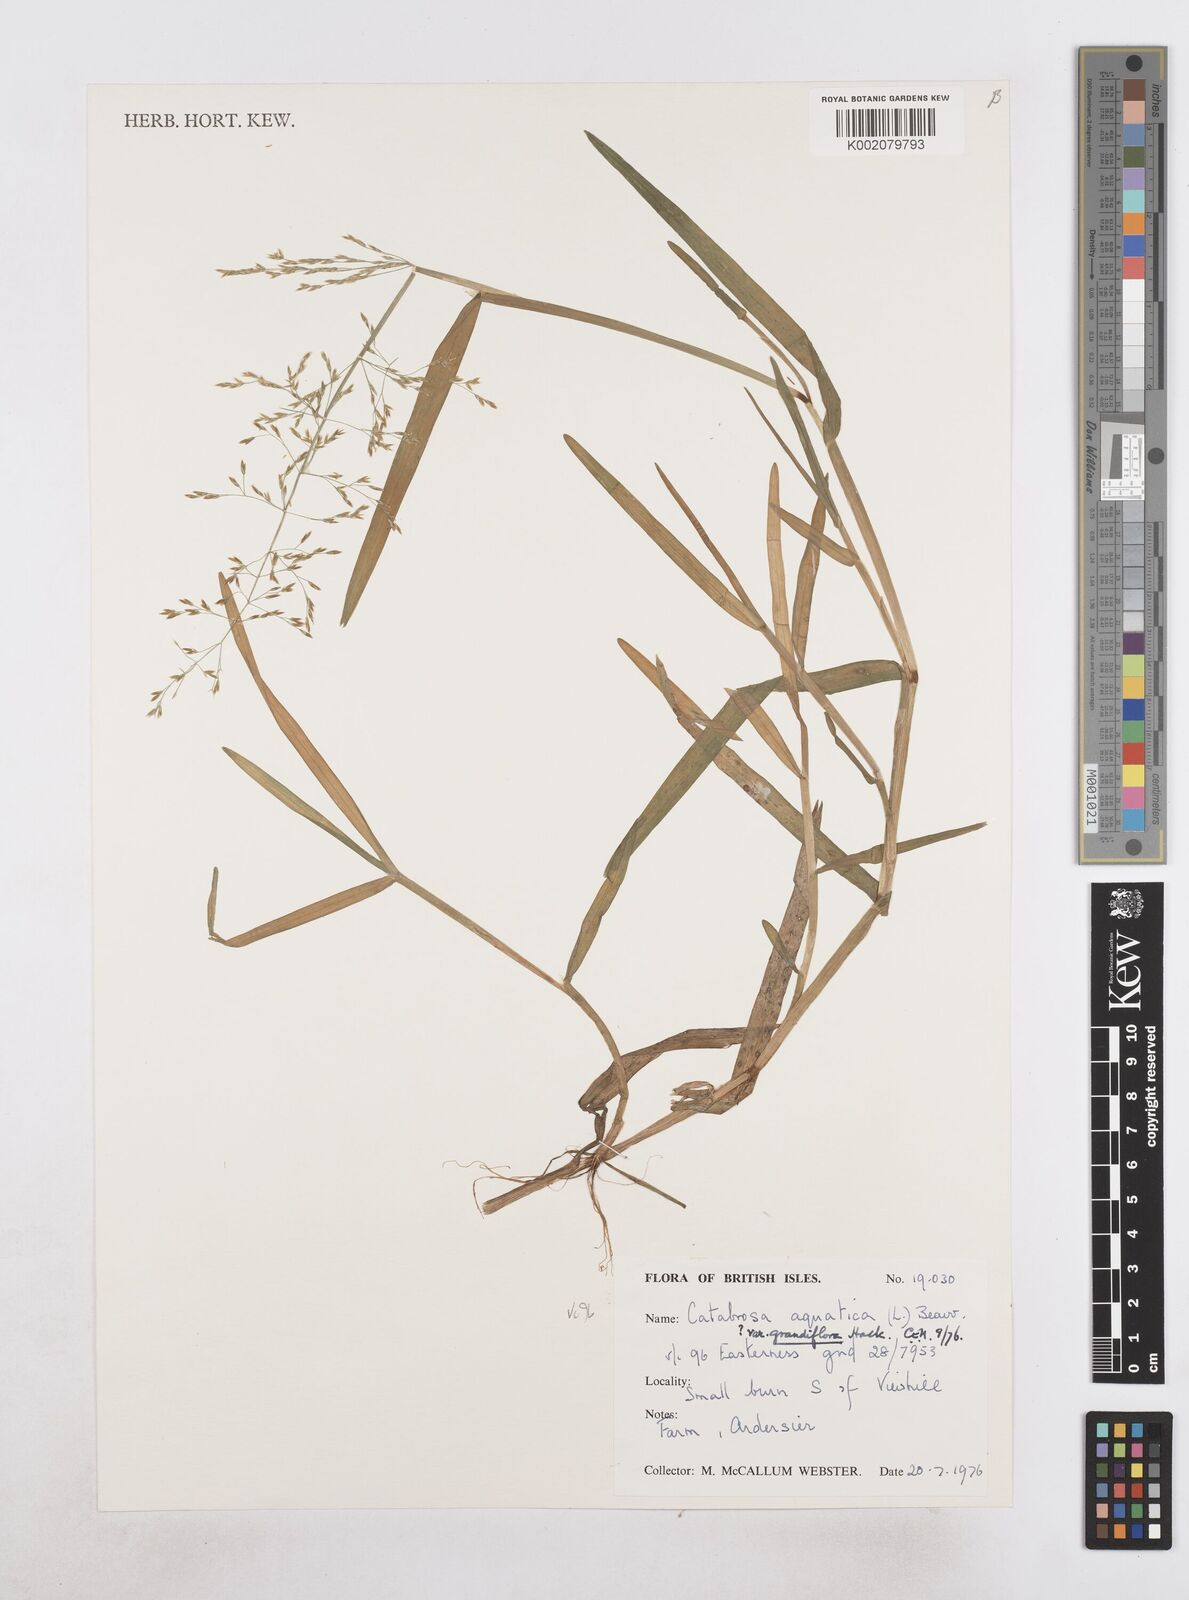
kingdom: Plantae
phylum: Tracheophyta
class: Liliopsida
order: Poales
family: Poaceae
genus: Catabrosa
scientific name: Catabrosa aquatica
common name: Whorl-grass
